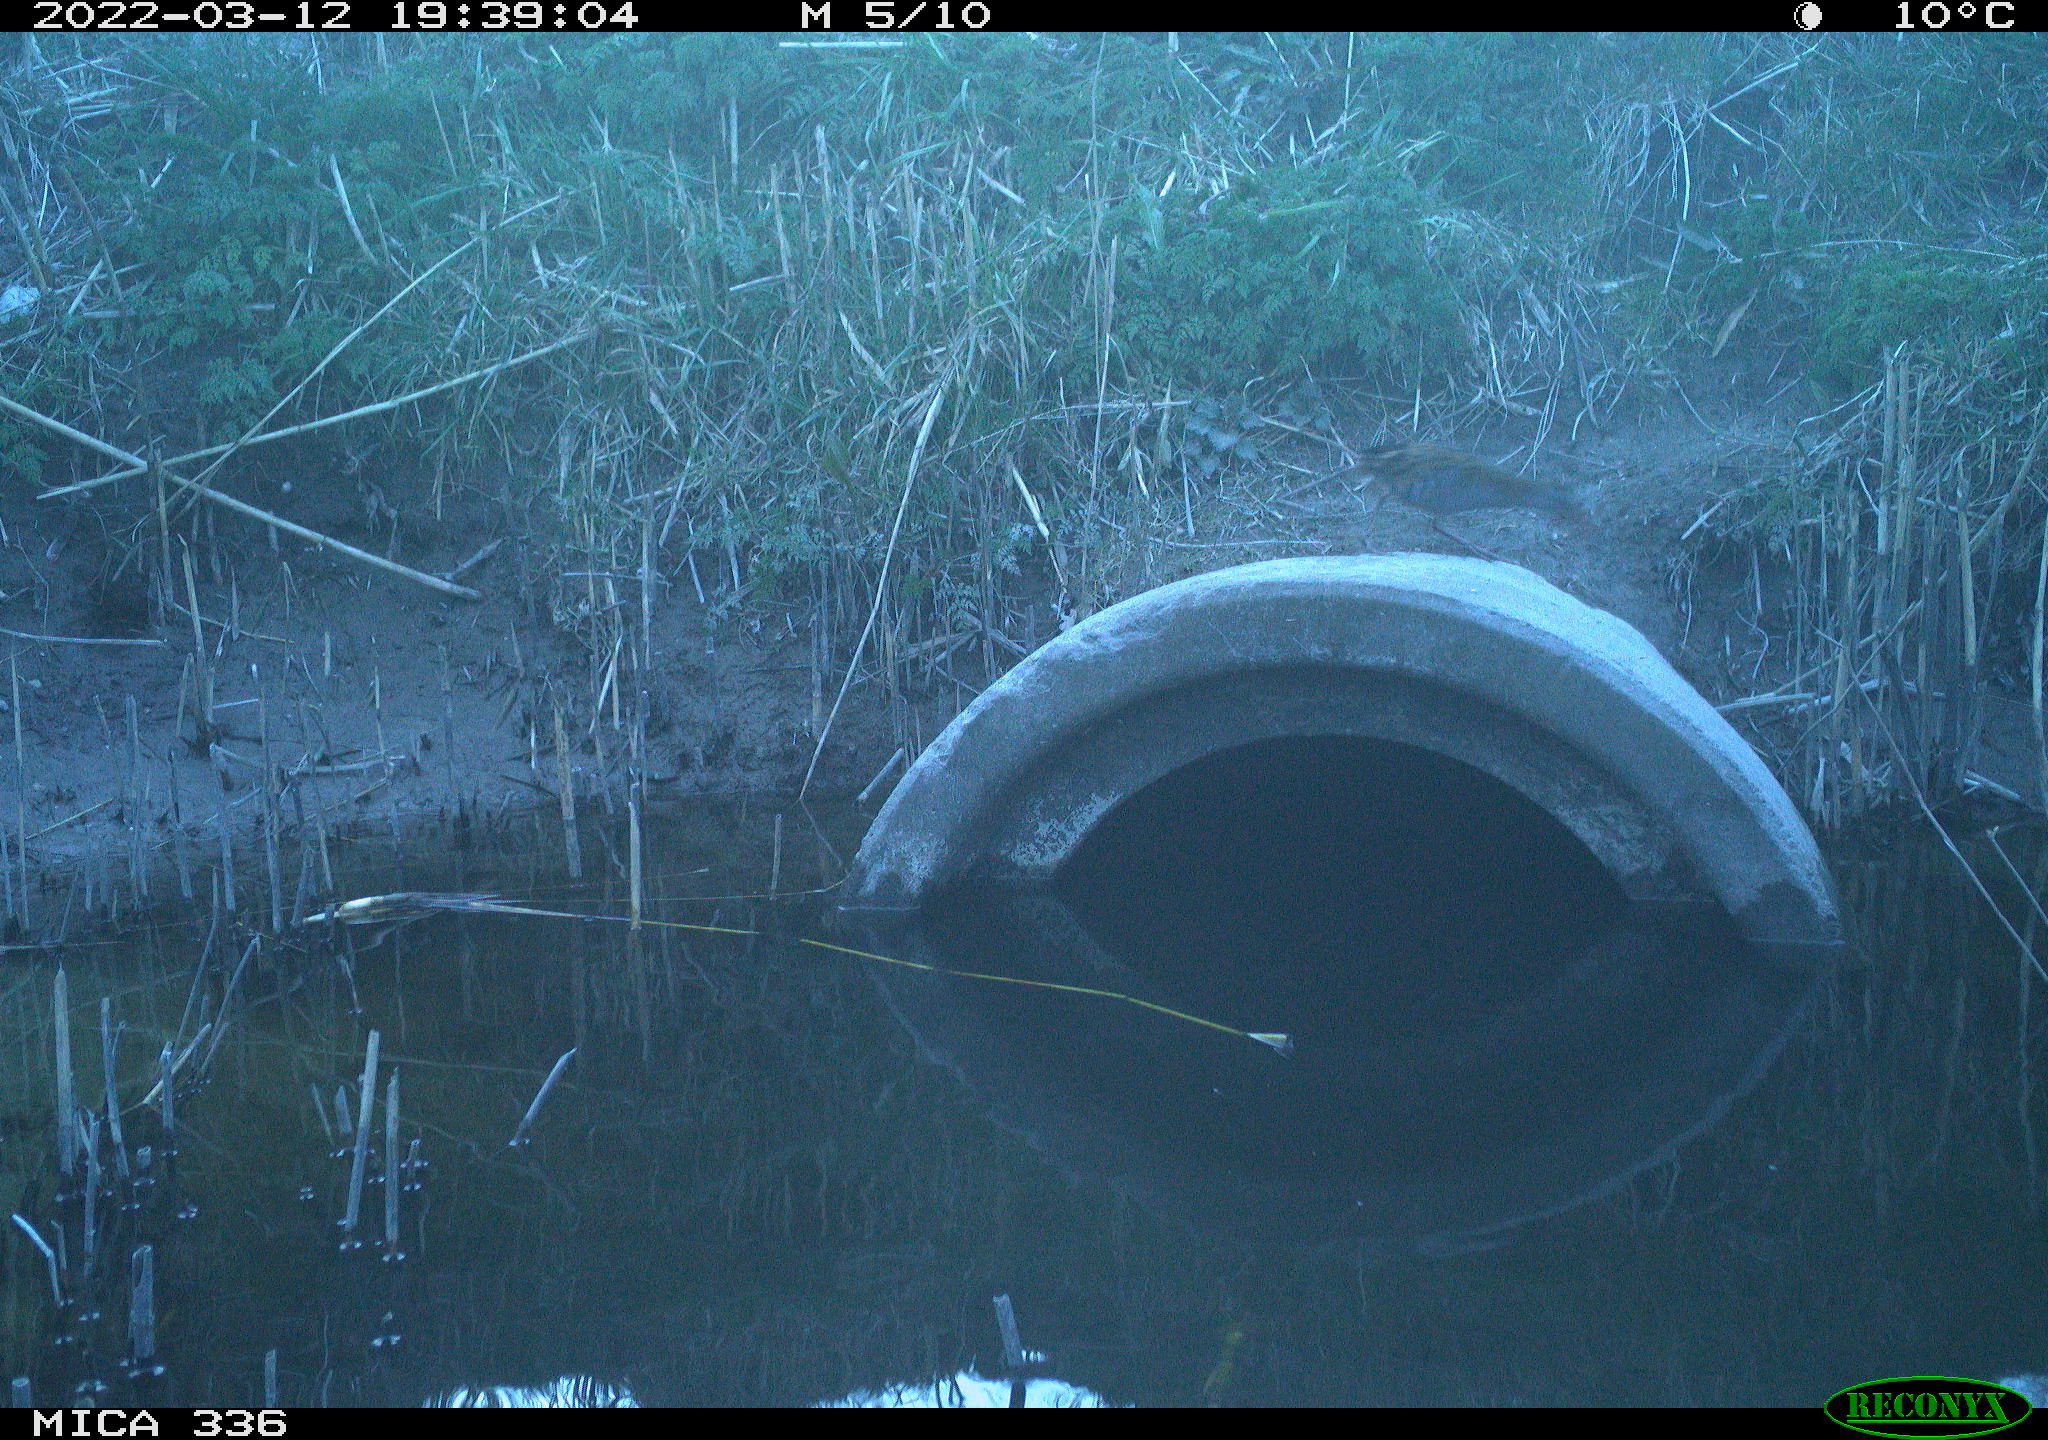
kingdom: Animalia
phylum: Chordata
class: Aves
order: Gruiformes
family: Rallidae
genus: Rallus
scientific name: Rallus aquaticus
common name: Water rail
